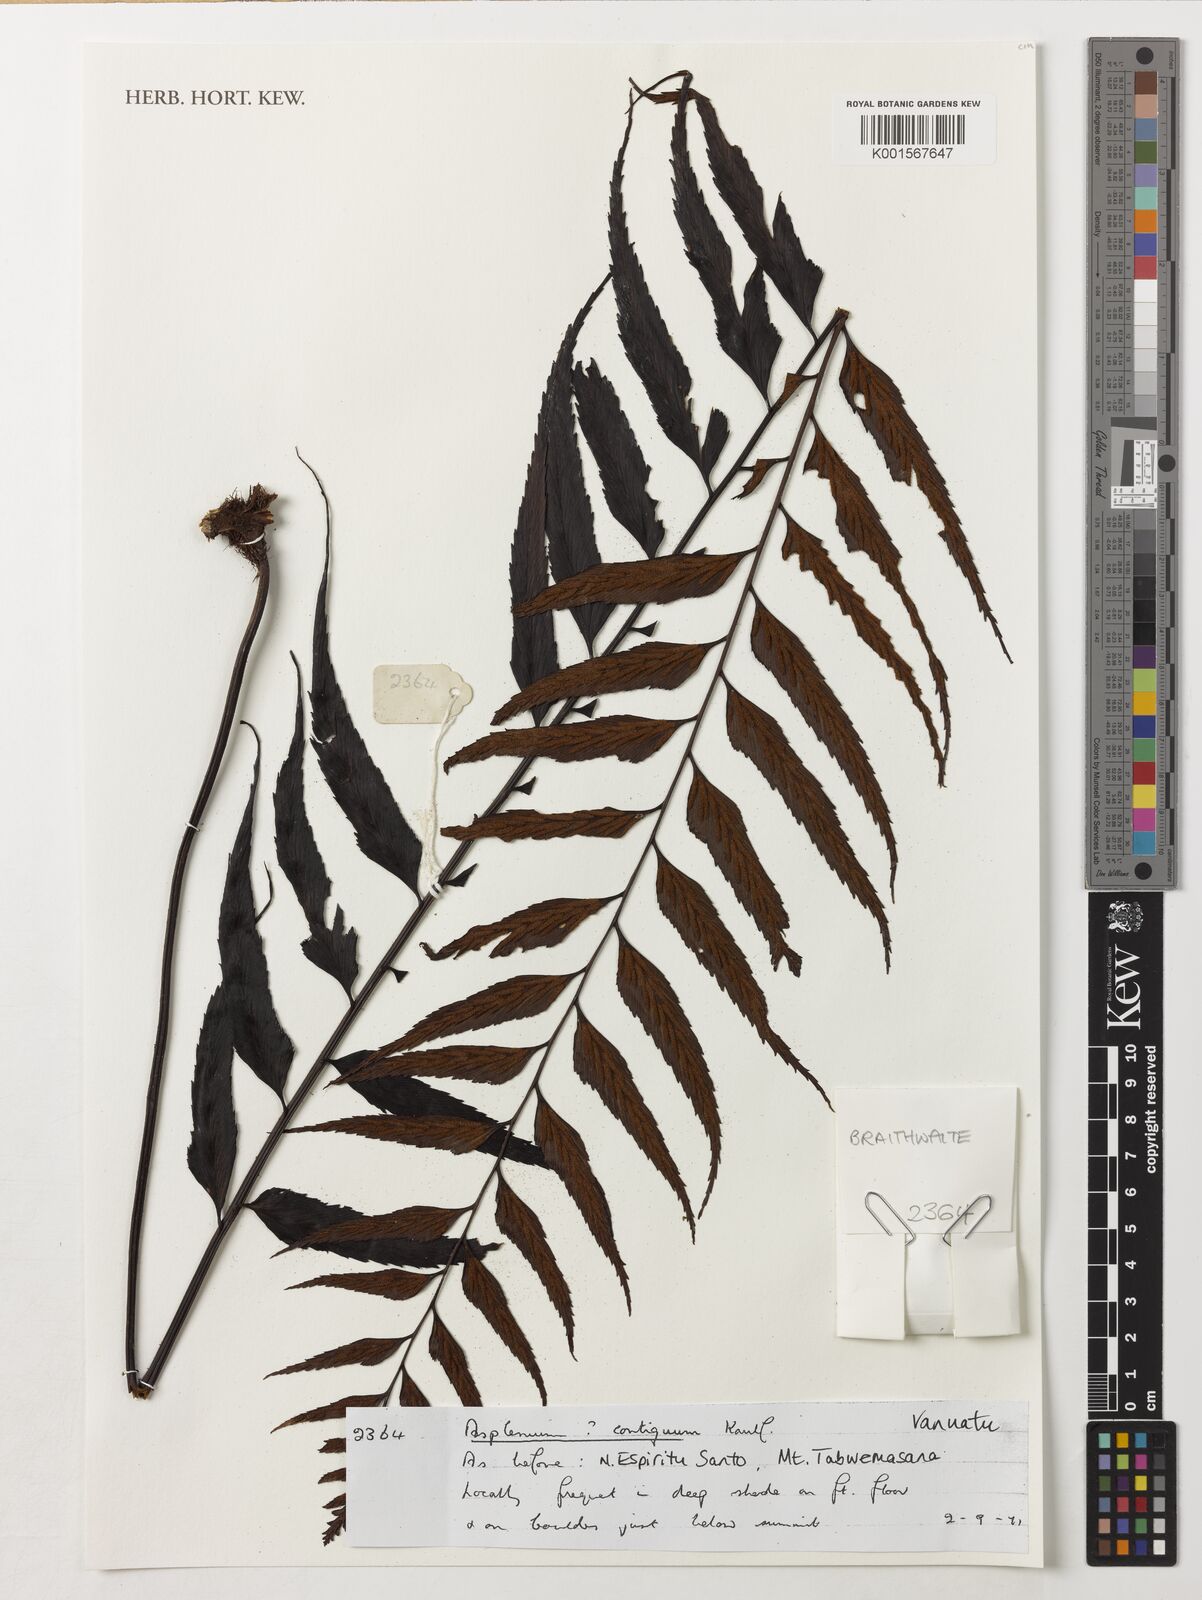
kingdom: Plantae
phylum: Tracheophyta
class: Polypodiopsida
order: Polypodiales
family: Aspleniaceae
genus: Asplenium
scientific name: Asplenium contiguum
